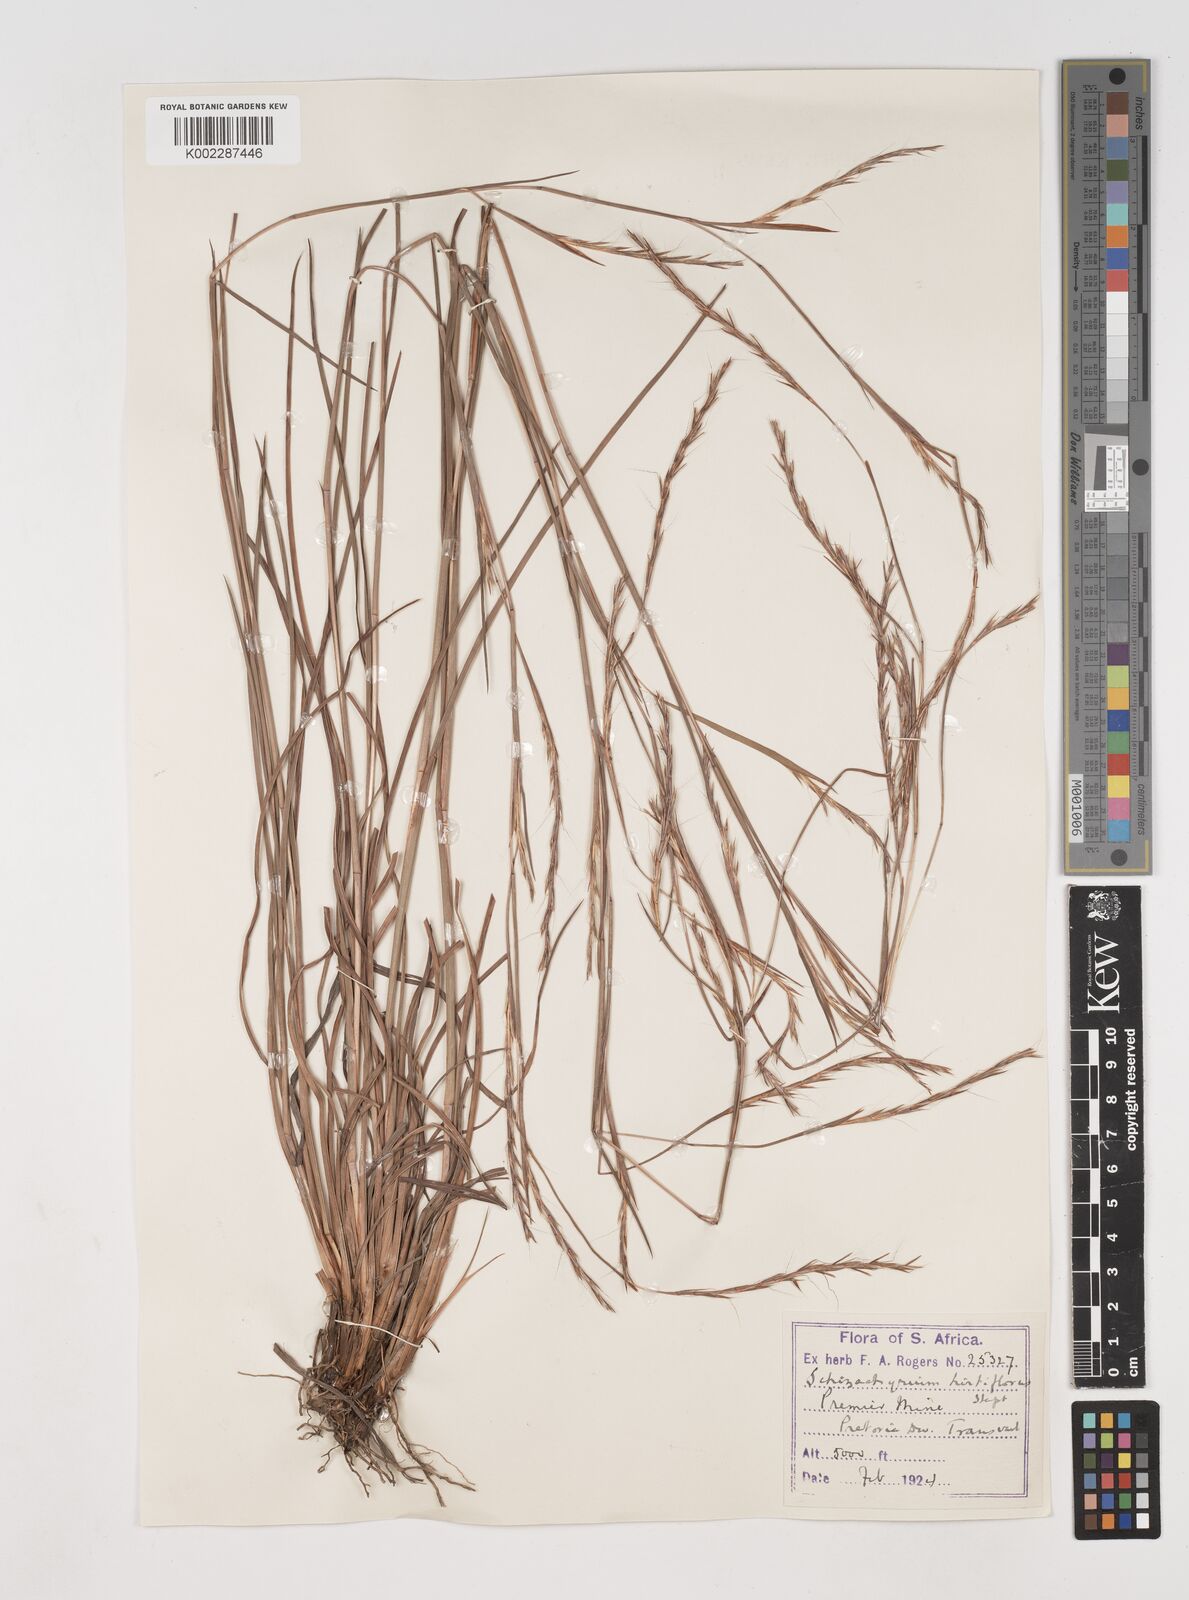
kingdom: Plantae
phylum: Tracheophyta
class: Liliopsida
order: Poales
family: Poaceae
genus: Schizachyrium
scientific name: Schizachyrium sanguineum
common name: Crimson bluestem
